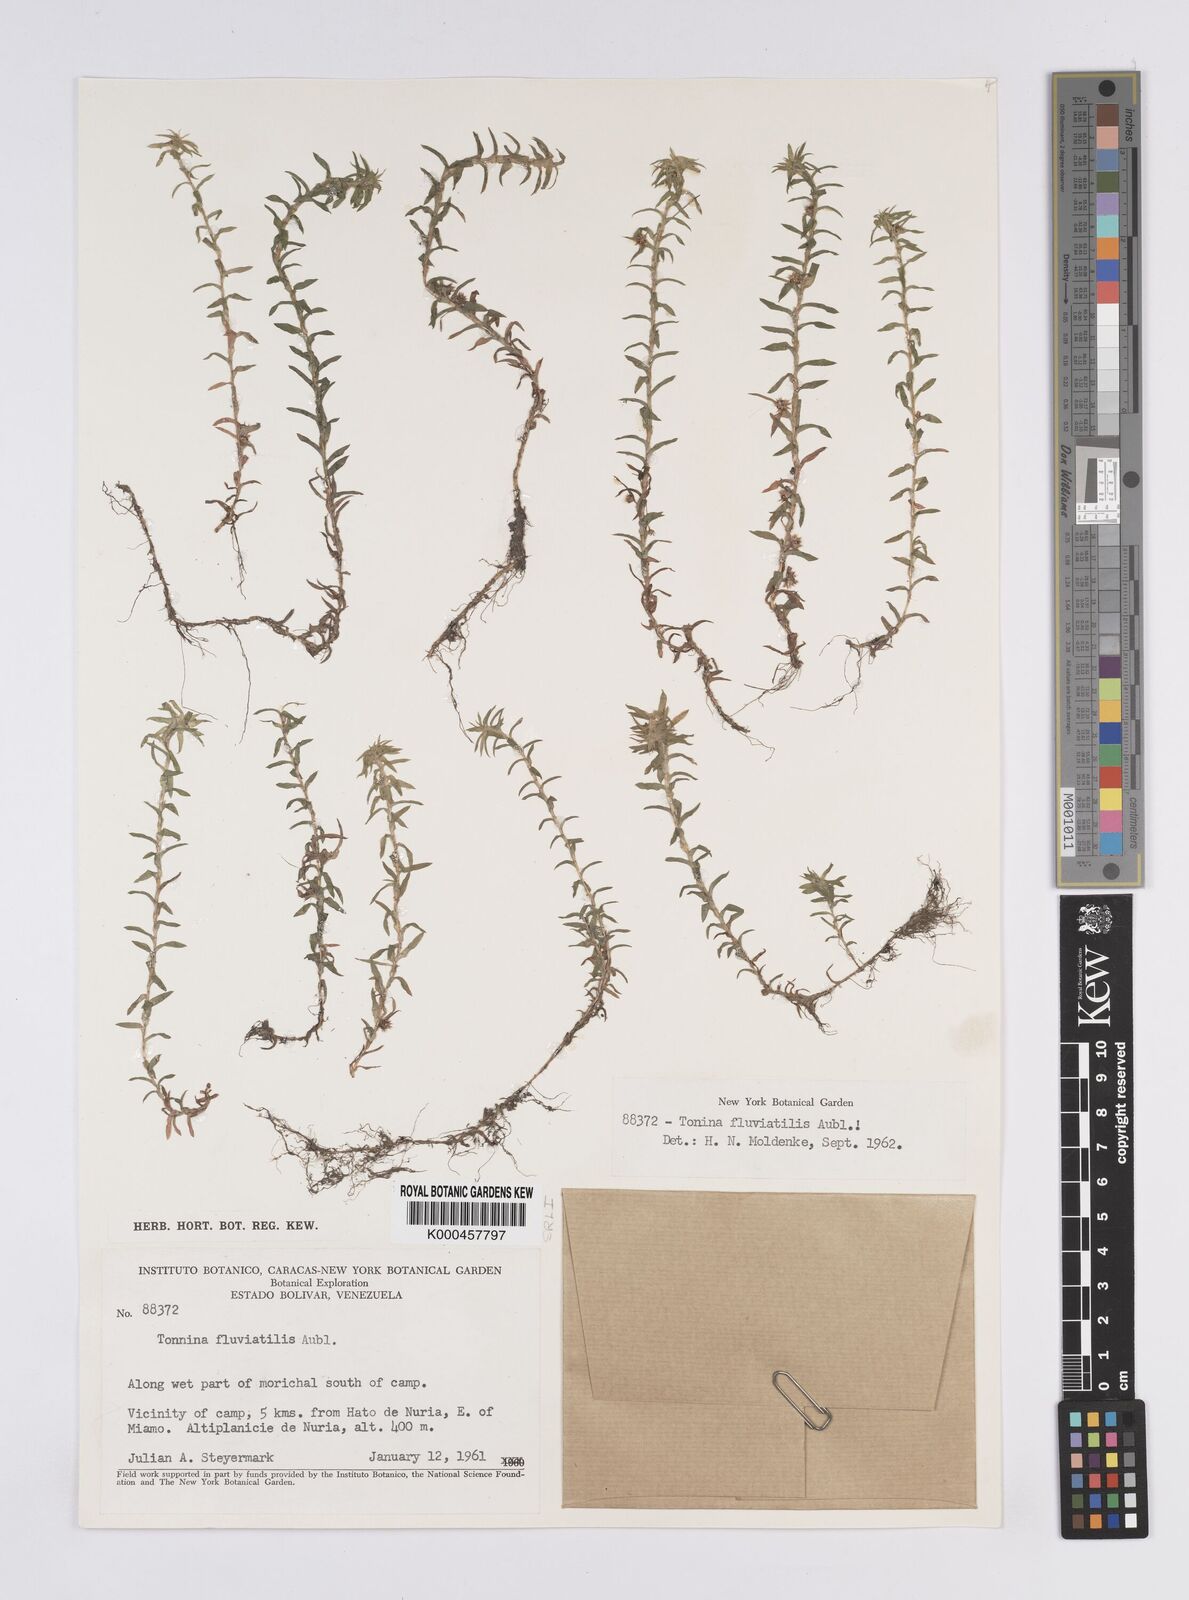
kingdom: Plantae
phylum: Tracheophyta
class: Liliopsida
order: Poales
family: Eriocaulaceae
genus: Paepalanthus
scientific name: Paepalanthus fluviatilis
